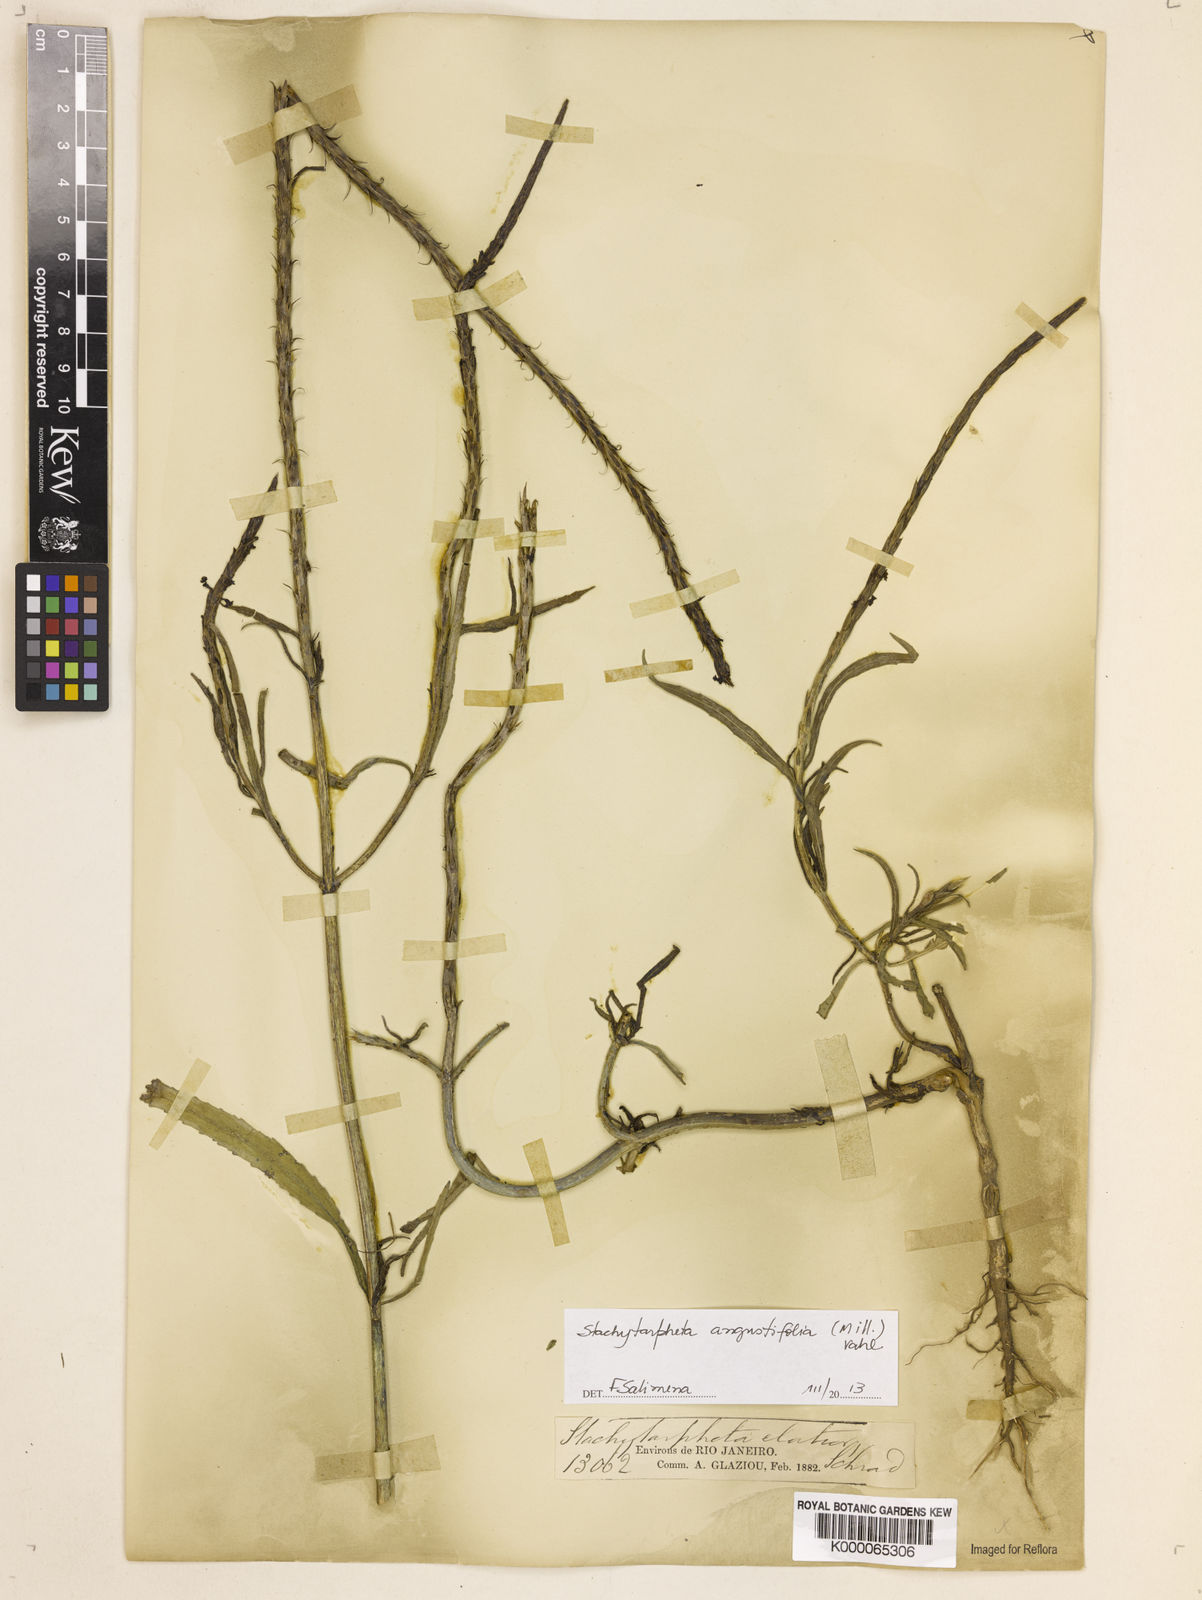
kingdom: Plantae
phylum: Tracheophyta
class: Magnoliopsida
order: Lamiales
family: Verbenaceae
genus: Stachytarpheta
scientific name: Stachytarpheta indica
